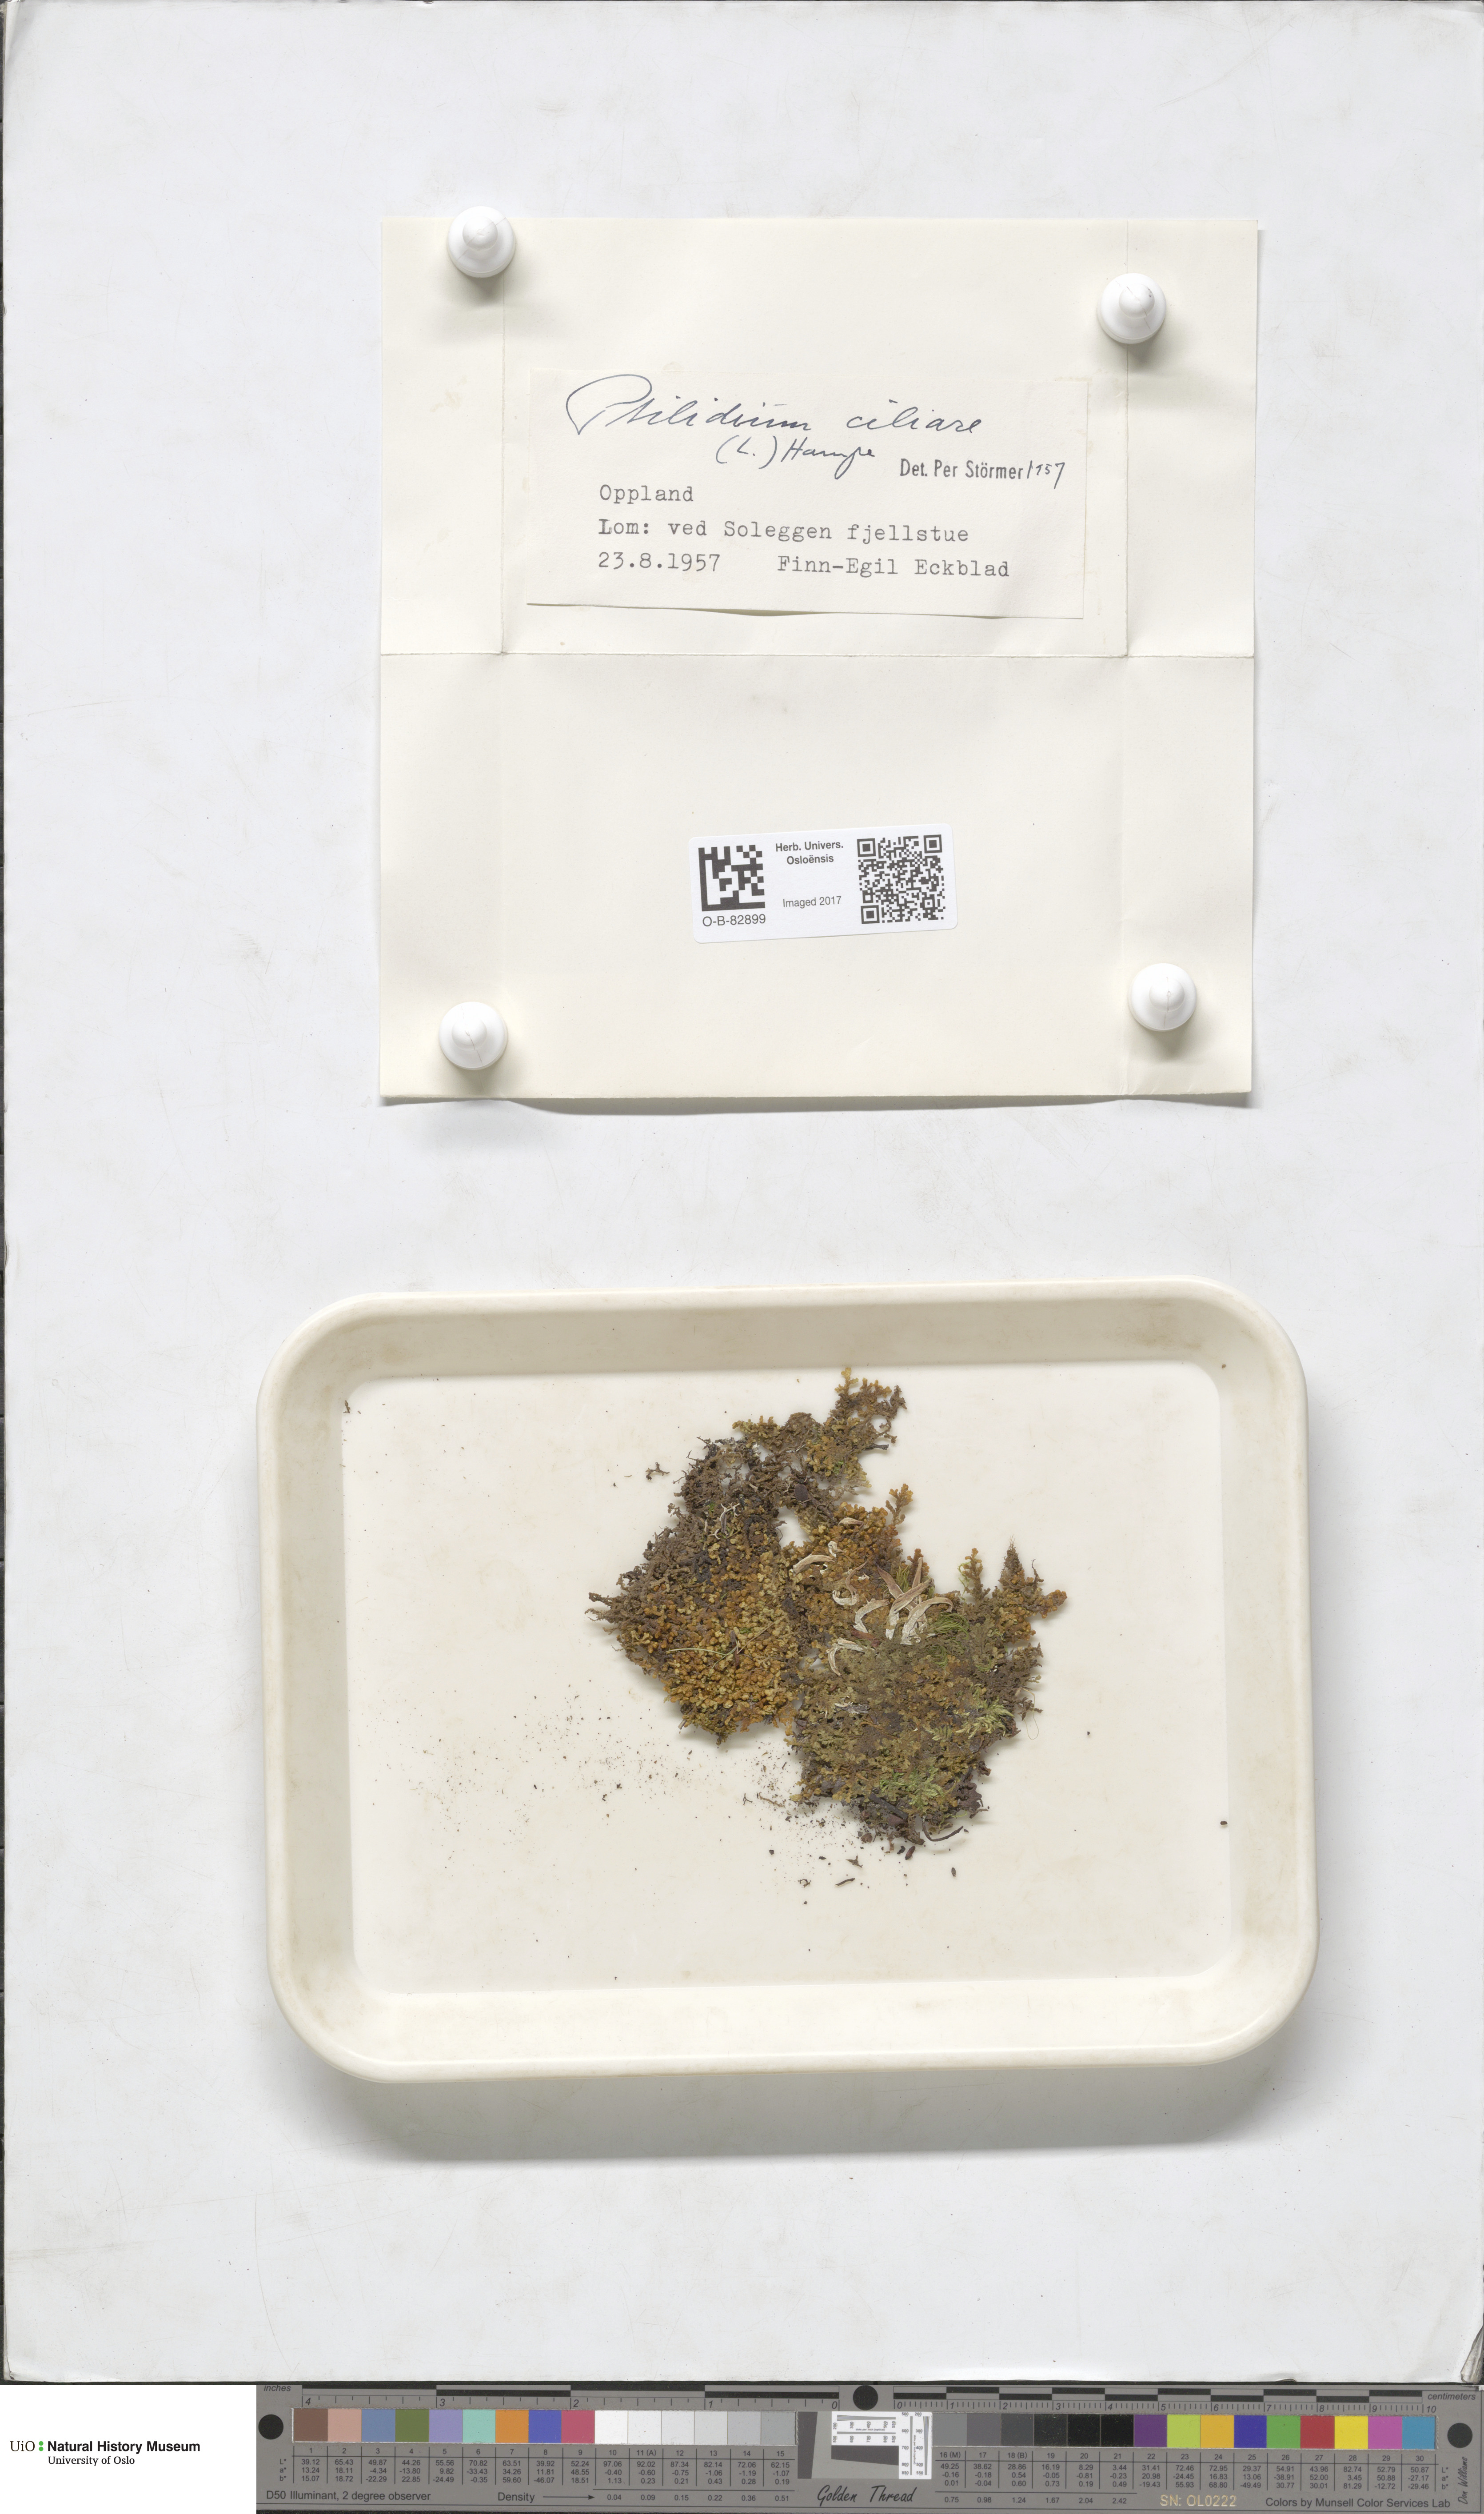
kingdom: Plantae
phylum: Marchantiophyta
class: Jungermanniopsida
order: Ptilidiales
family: Ptilidiaceae
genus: Ptilidium
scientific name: Ptilidium ciliare
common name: Ciliate fringewort
